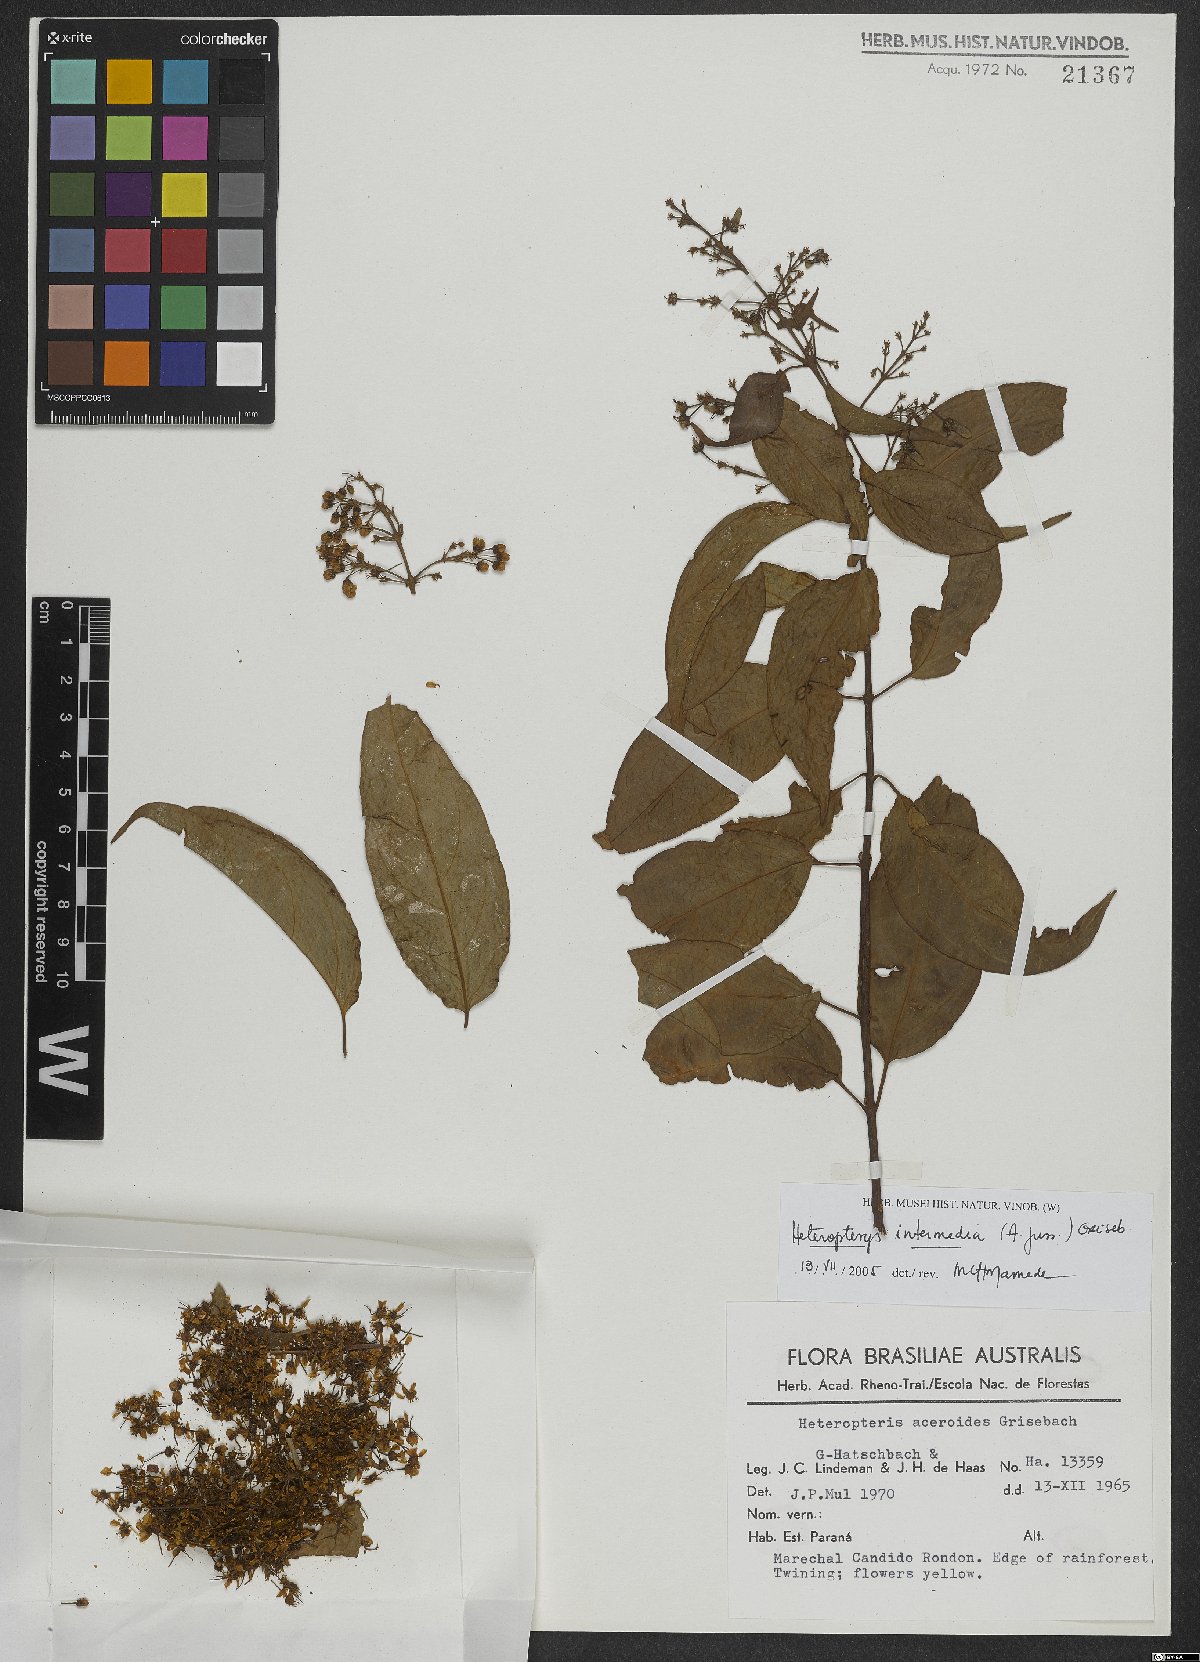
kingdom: Plantae
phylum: Tracheophyta
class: Magnoliopsida
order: Malpighiales
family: Malpighiaceae
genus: Heteropterys
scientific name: Heteropterys intermedia
